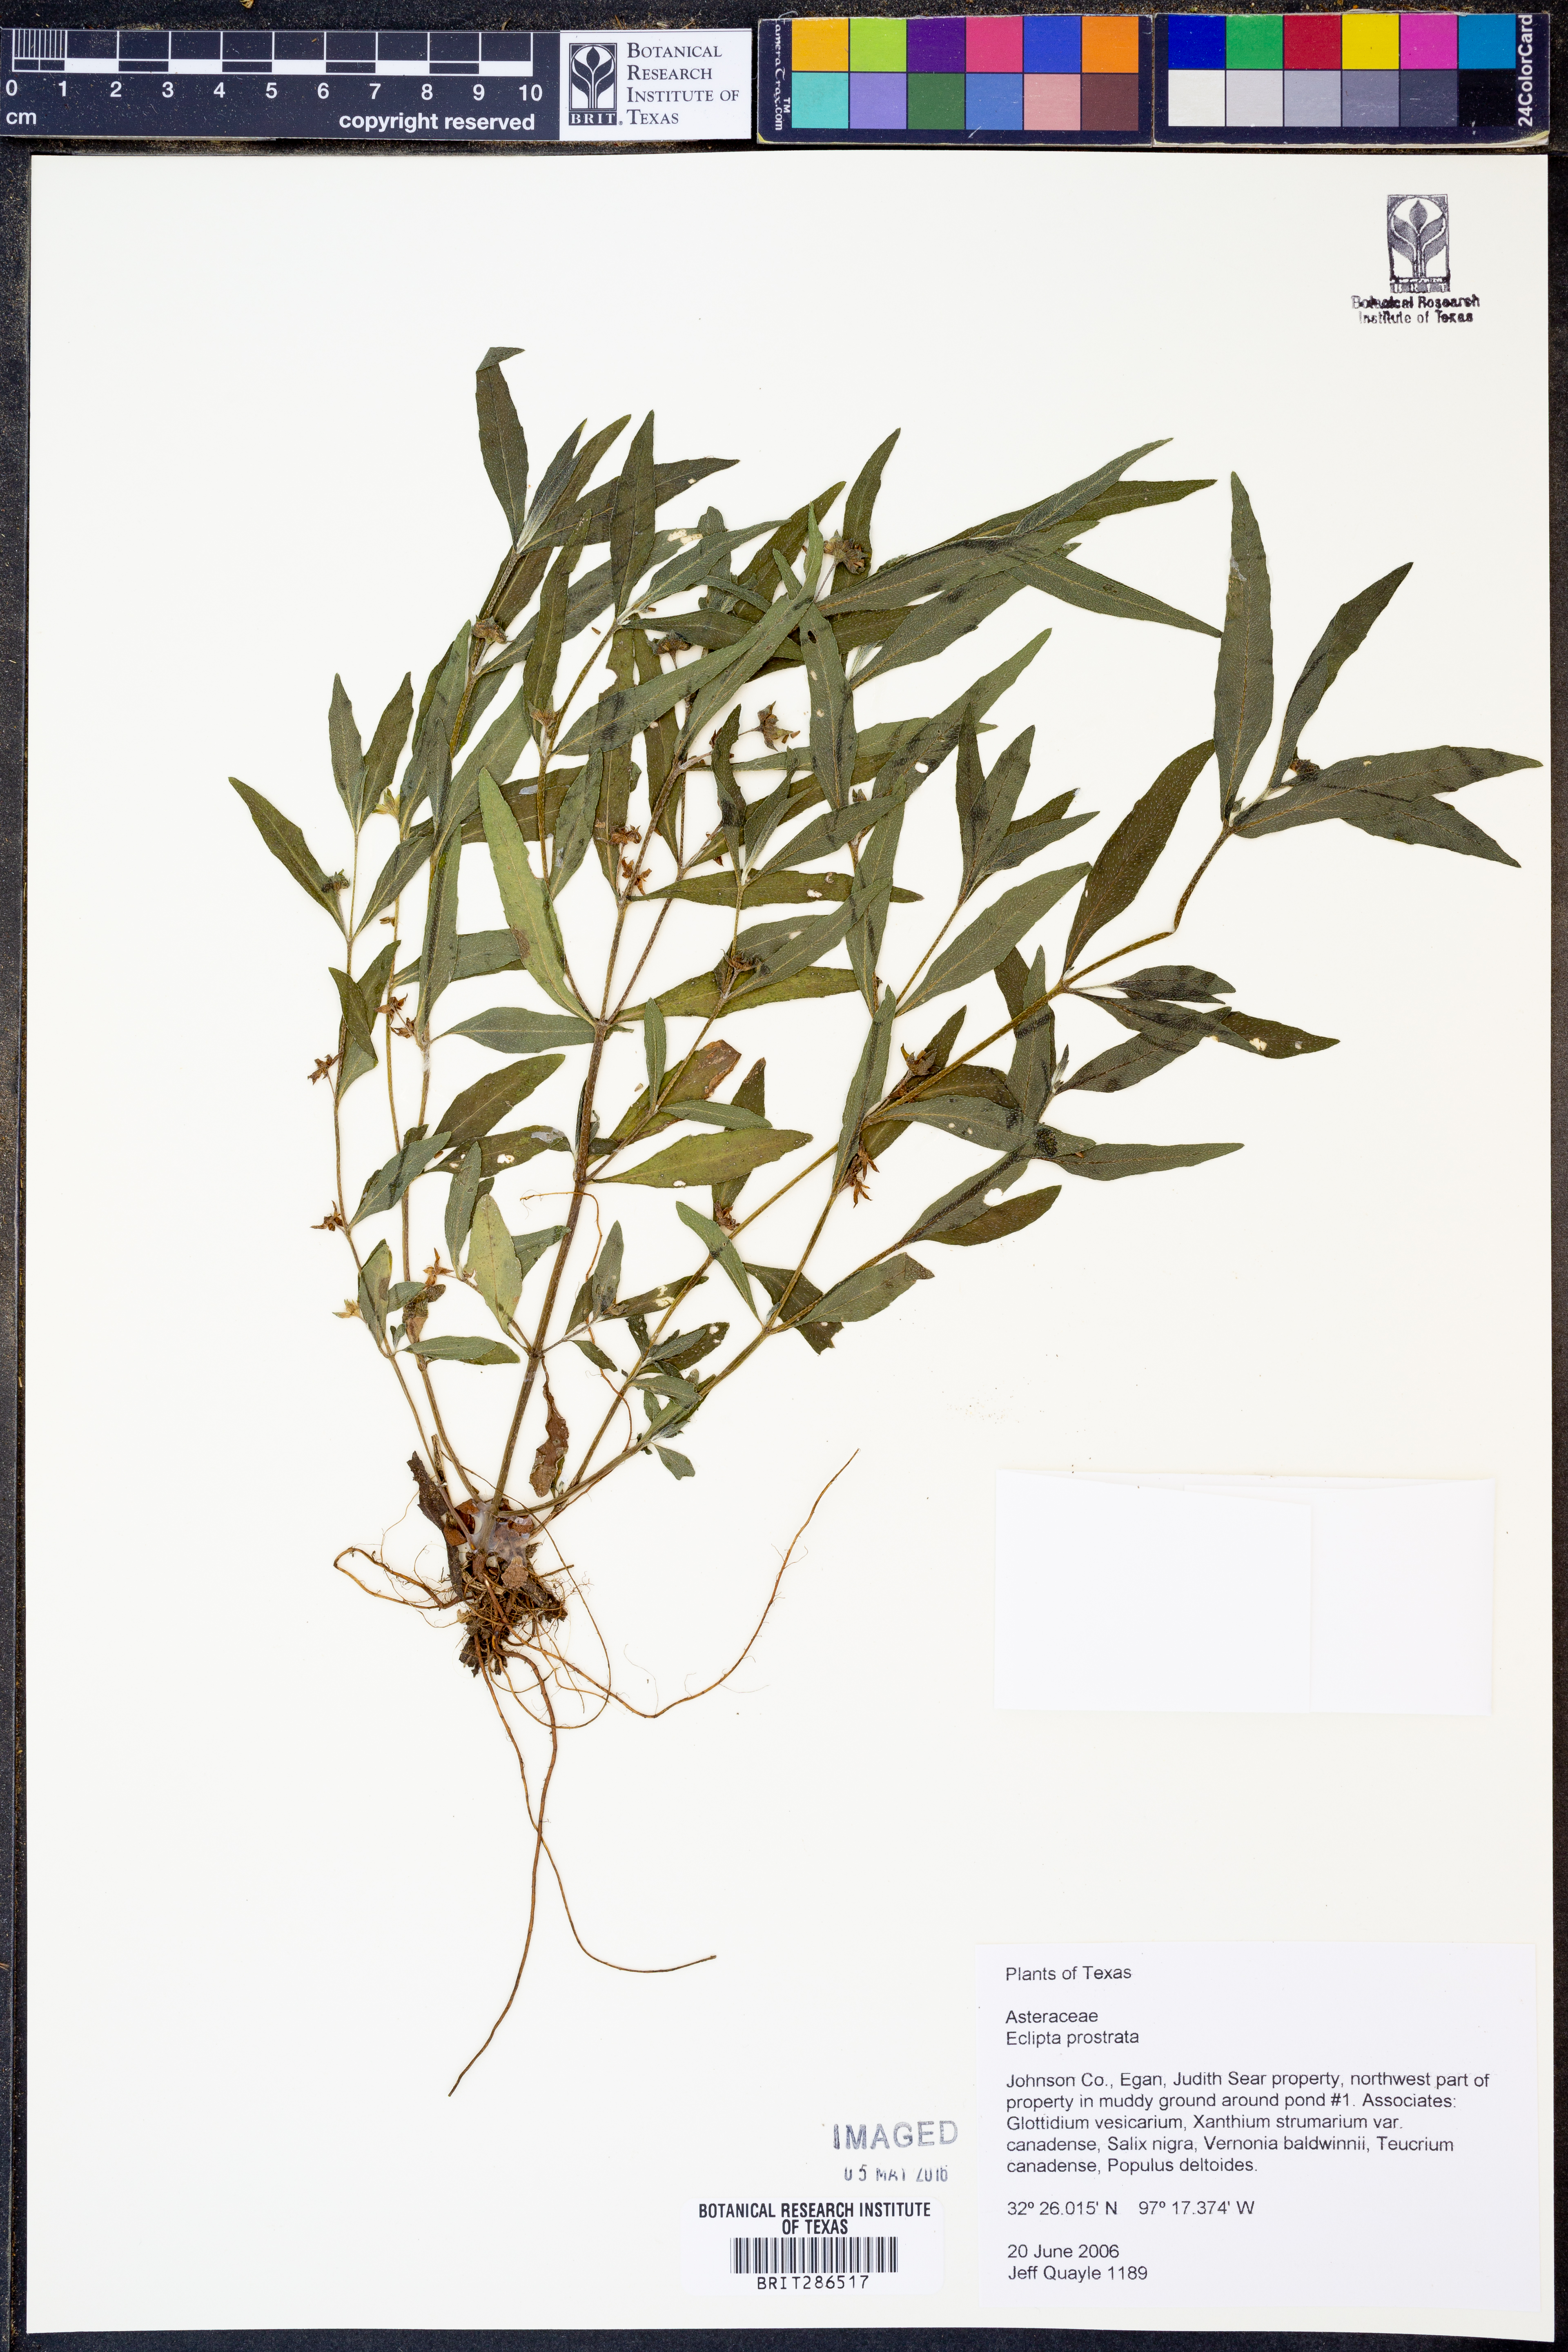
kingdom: Plantae
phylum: Tracheophyta
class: Magnoliopsida
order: Asterales
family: Asteraceae
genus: Eclipta
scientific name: Eclipta prostrata
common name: False daisy
